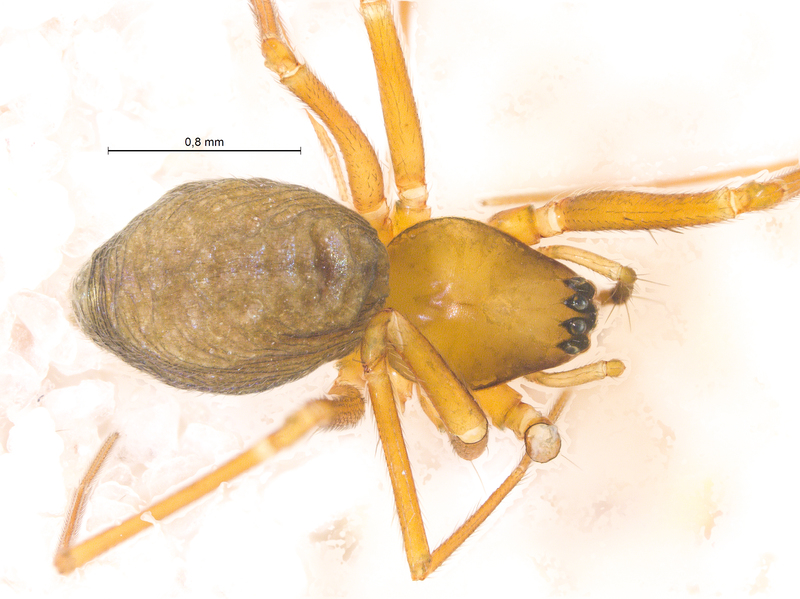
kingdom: Animalia
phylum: Arthropoda
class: Arachnida
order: Araneae
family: Linyphiidae
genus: Diplostyla
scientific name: Diplostyla concolor
